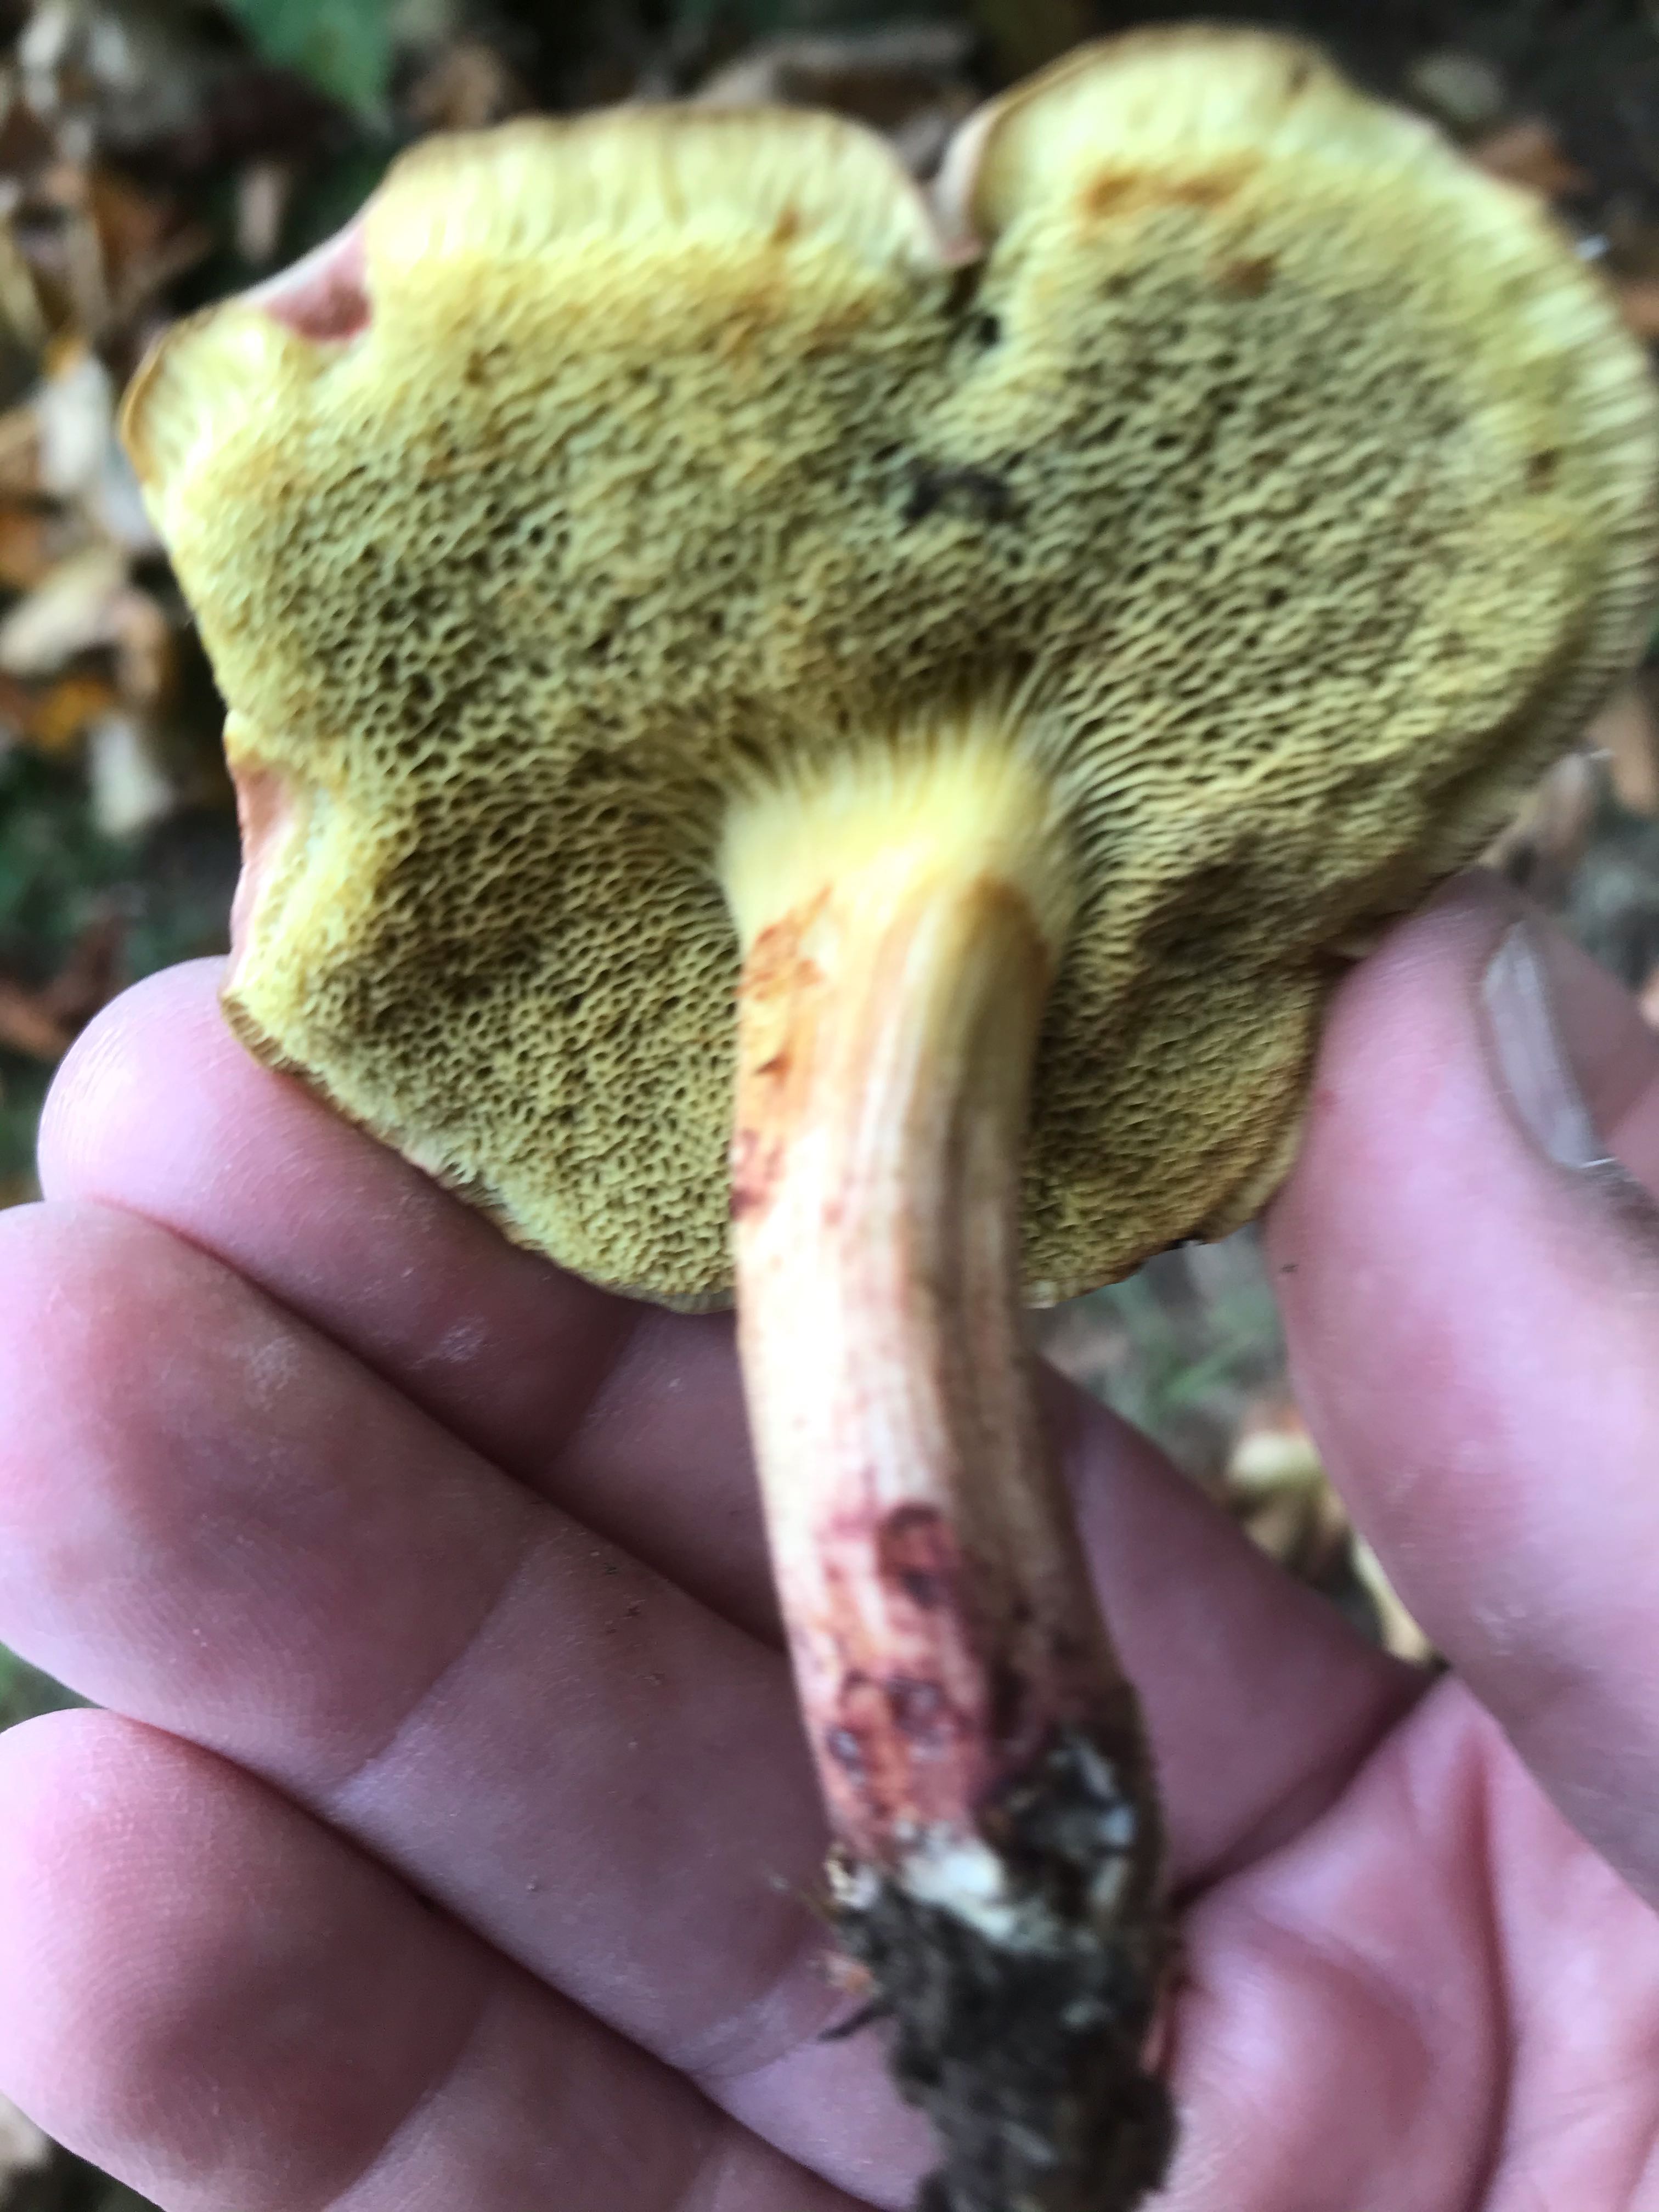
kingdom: Fungi
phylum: Basidiomycota
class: Agaricomycetes
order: Boletales
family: Boletaceae
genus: Xerocomellus
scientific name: Xerocomellus pruinatus
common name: dugget rørhat
